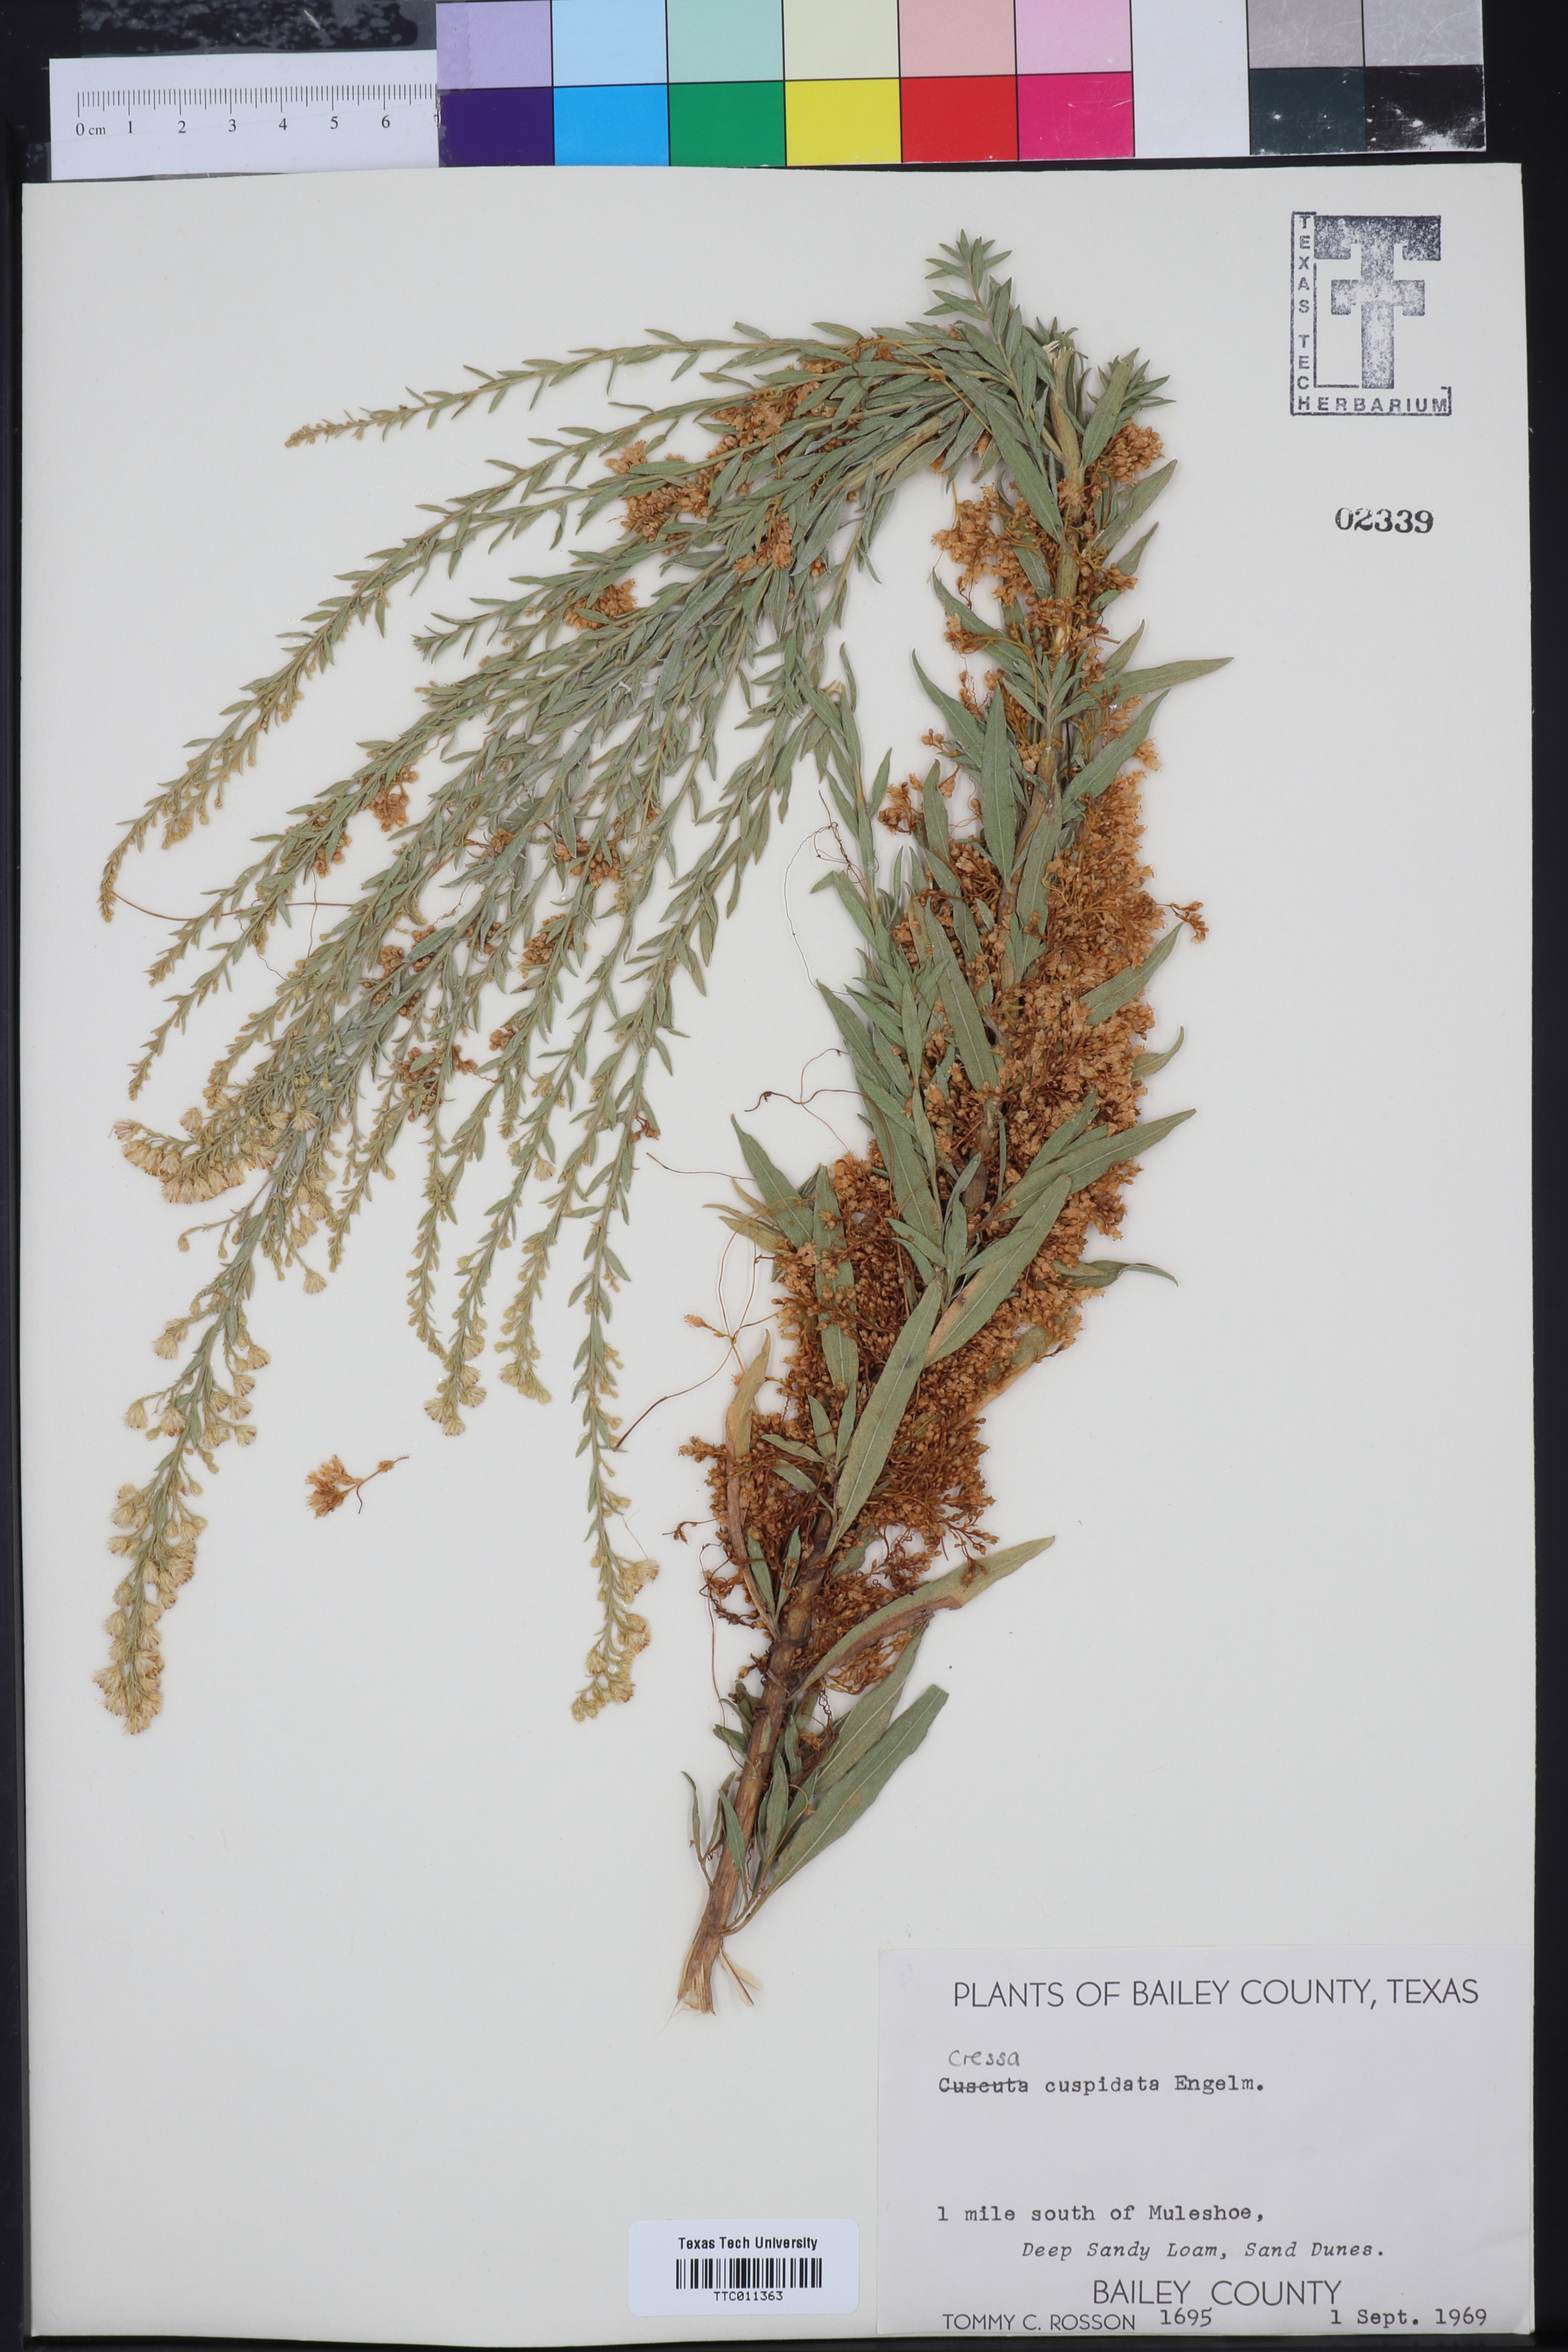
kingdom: Plantae
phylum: Tracheophyta
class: Magnoliopsida
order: Solanales
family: Convolvulaceae
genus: Cressa
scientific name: Cressa
